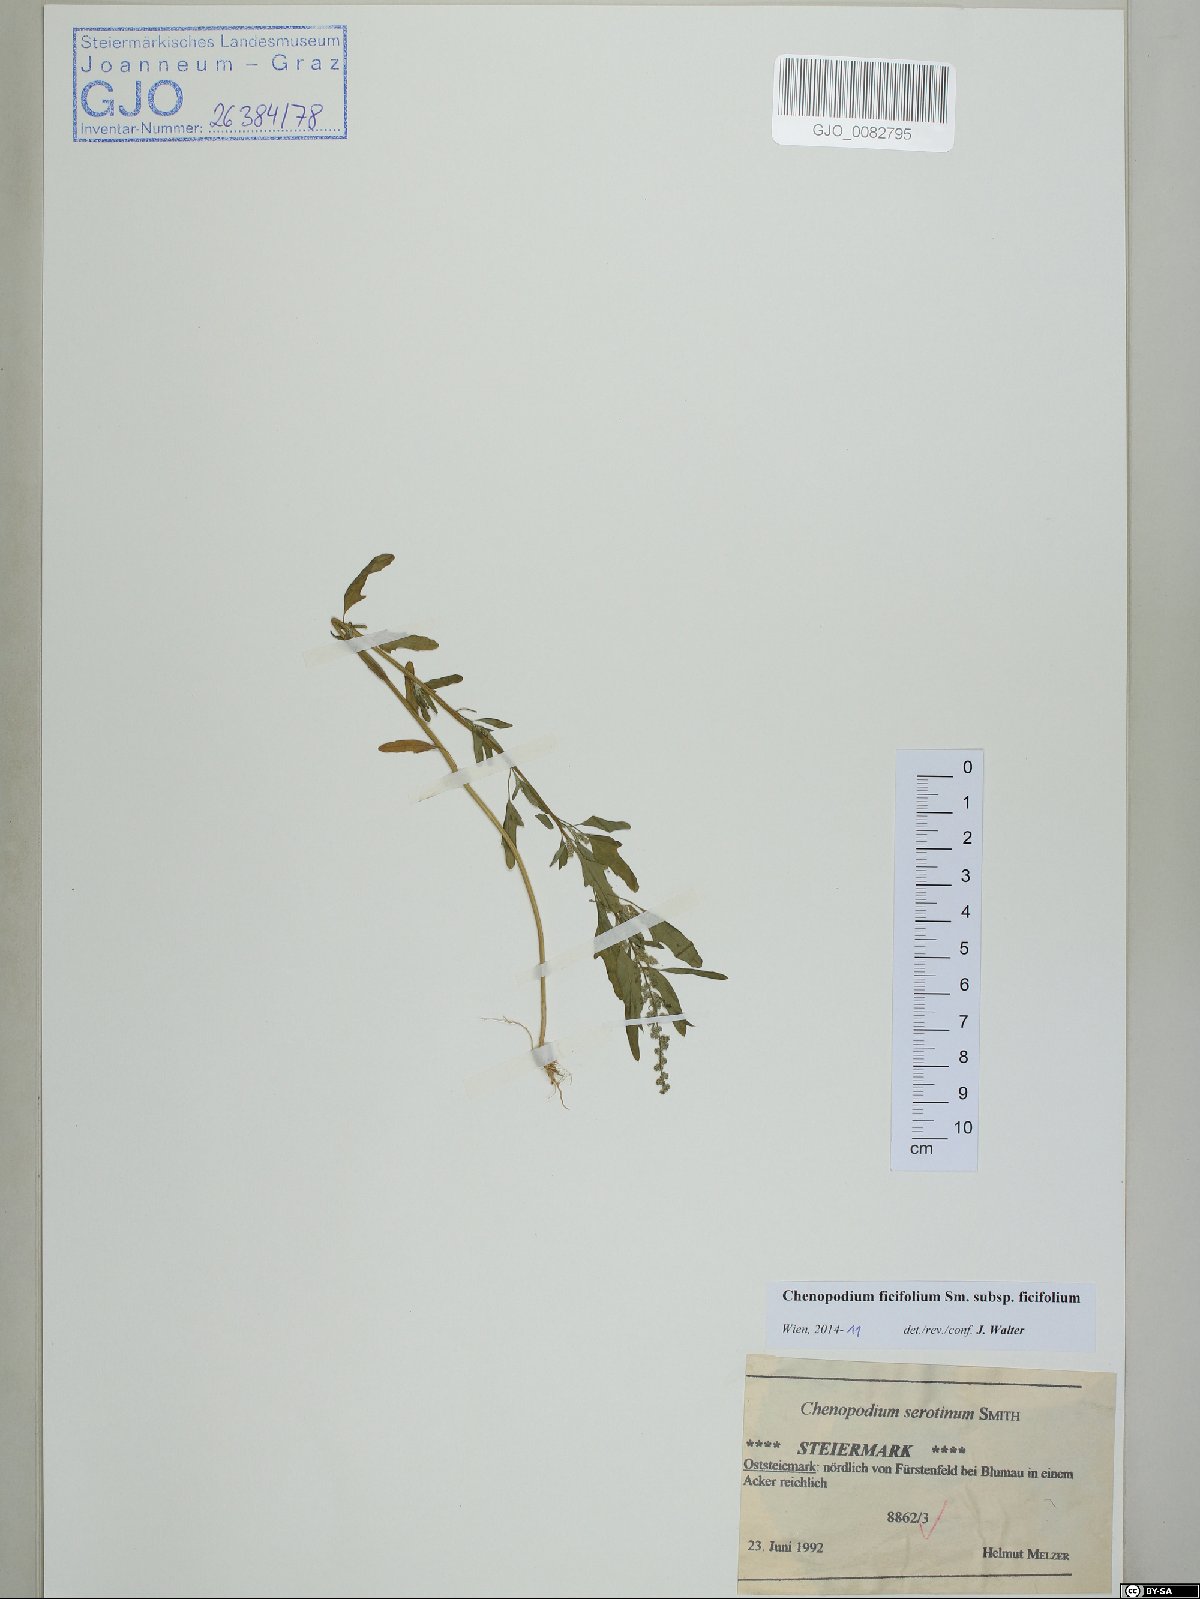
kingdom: Plantae
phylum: Tracheophyta
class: Magnoliopsida
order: Caryophyllales
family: Amaranthaceae
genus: Chenopodium
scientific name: Chenopodium ficifolium
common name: Fig-leaved goosefoot
